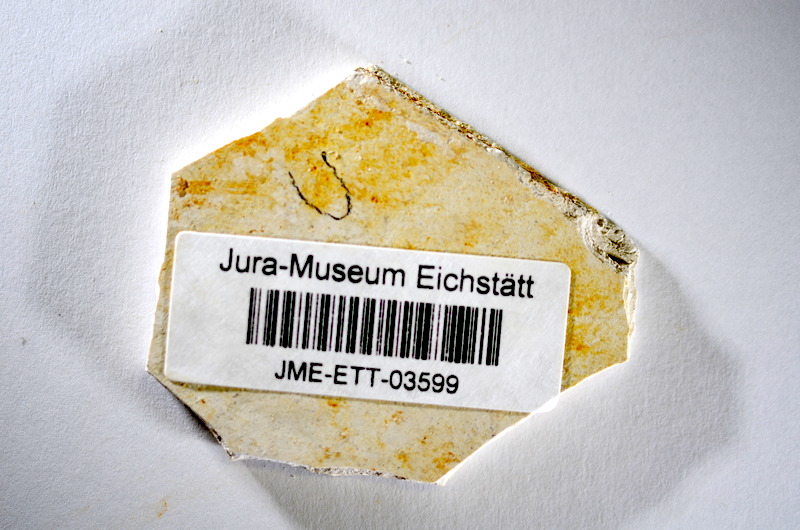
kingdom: Animalia
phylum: Chordata
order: Salmoniformes
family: Orthogonikleithridae
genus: Orthogonikleithrus
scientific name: Orthogonikleithrus hoelli
